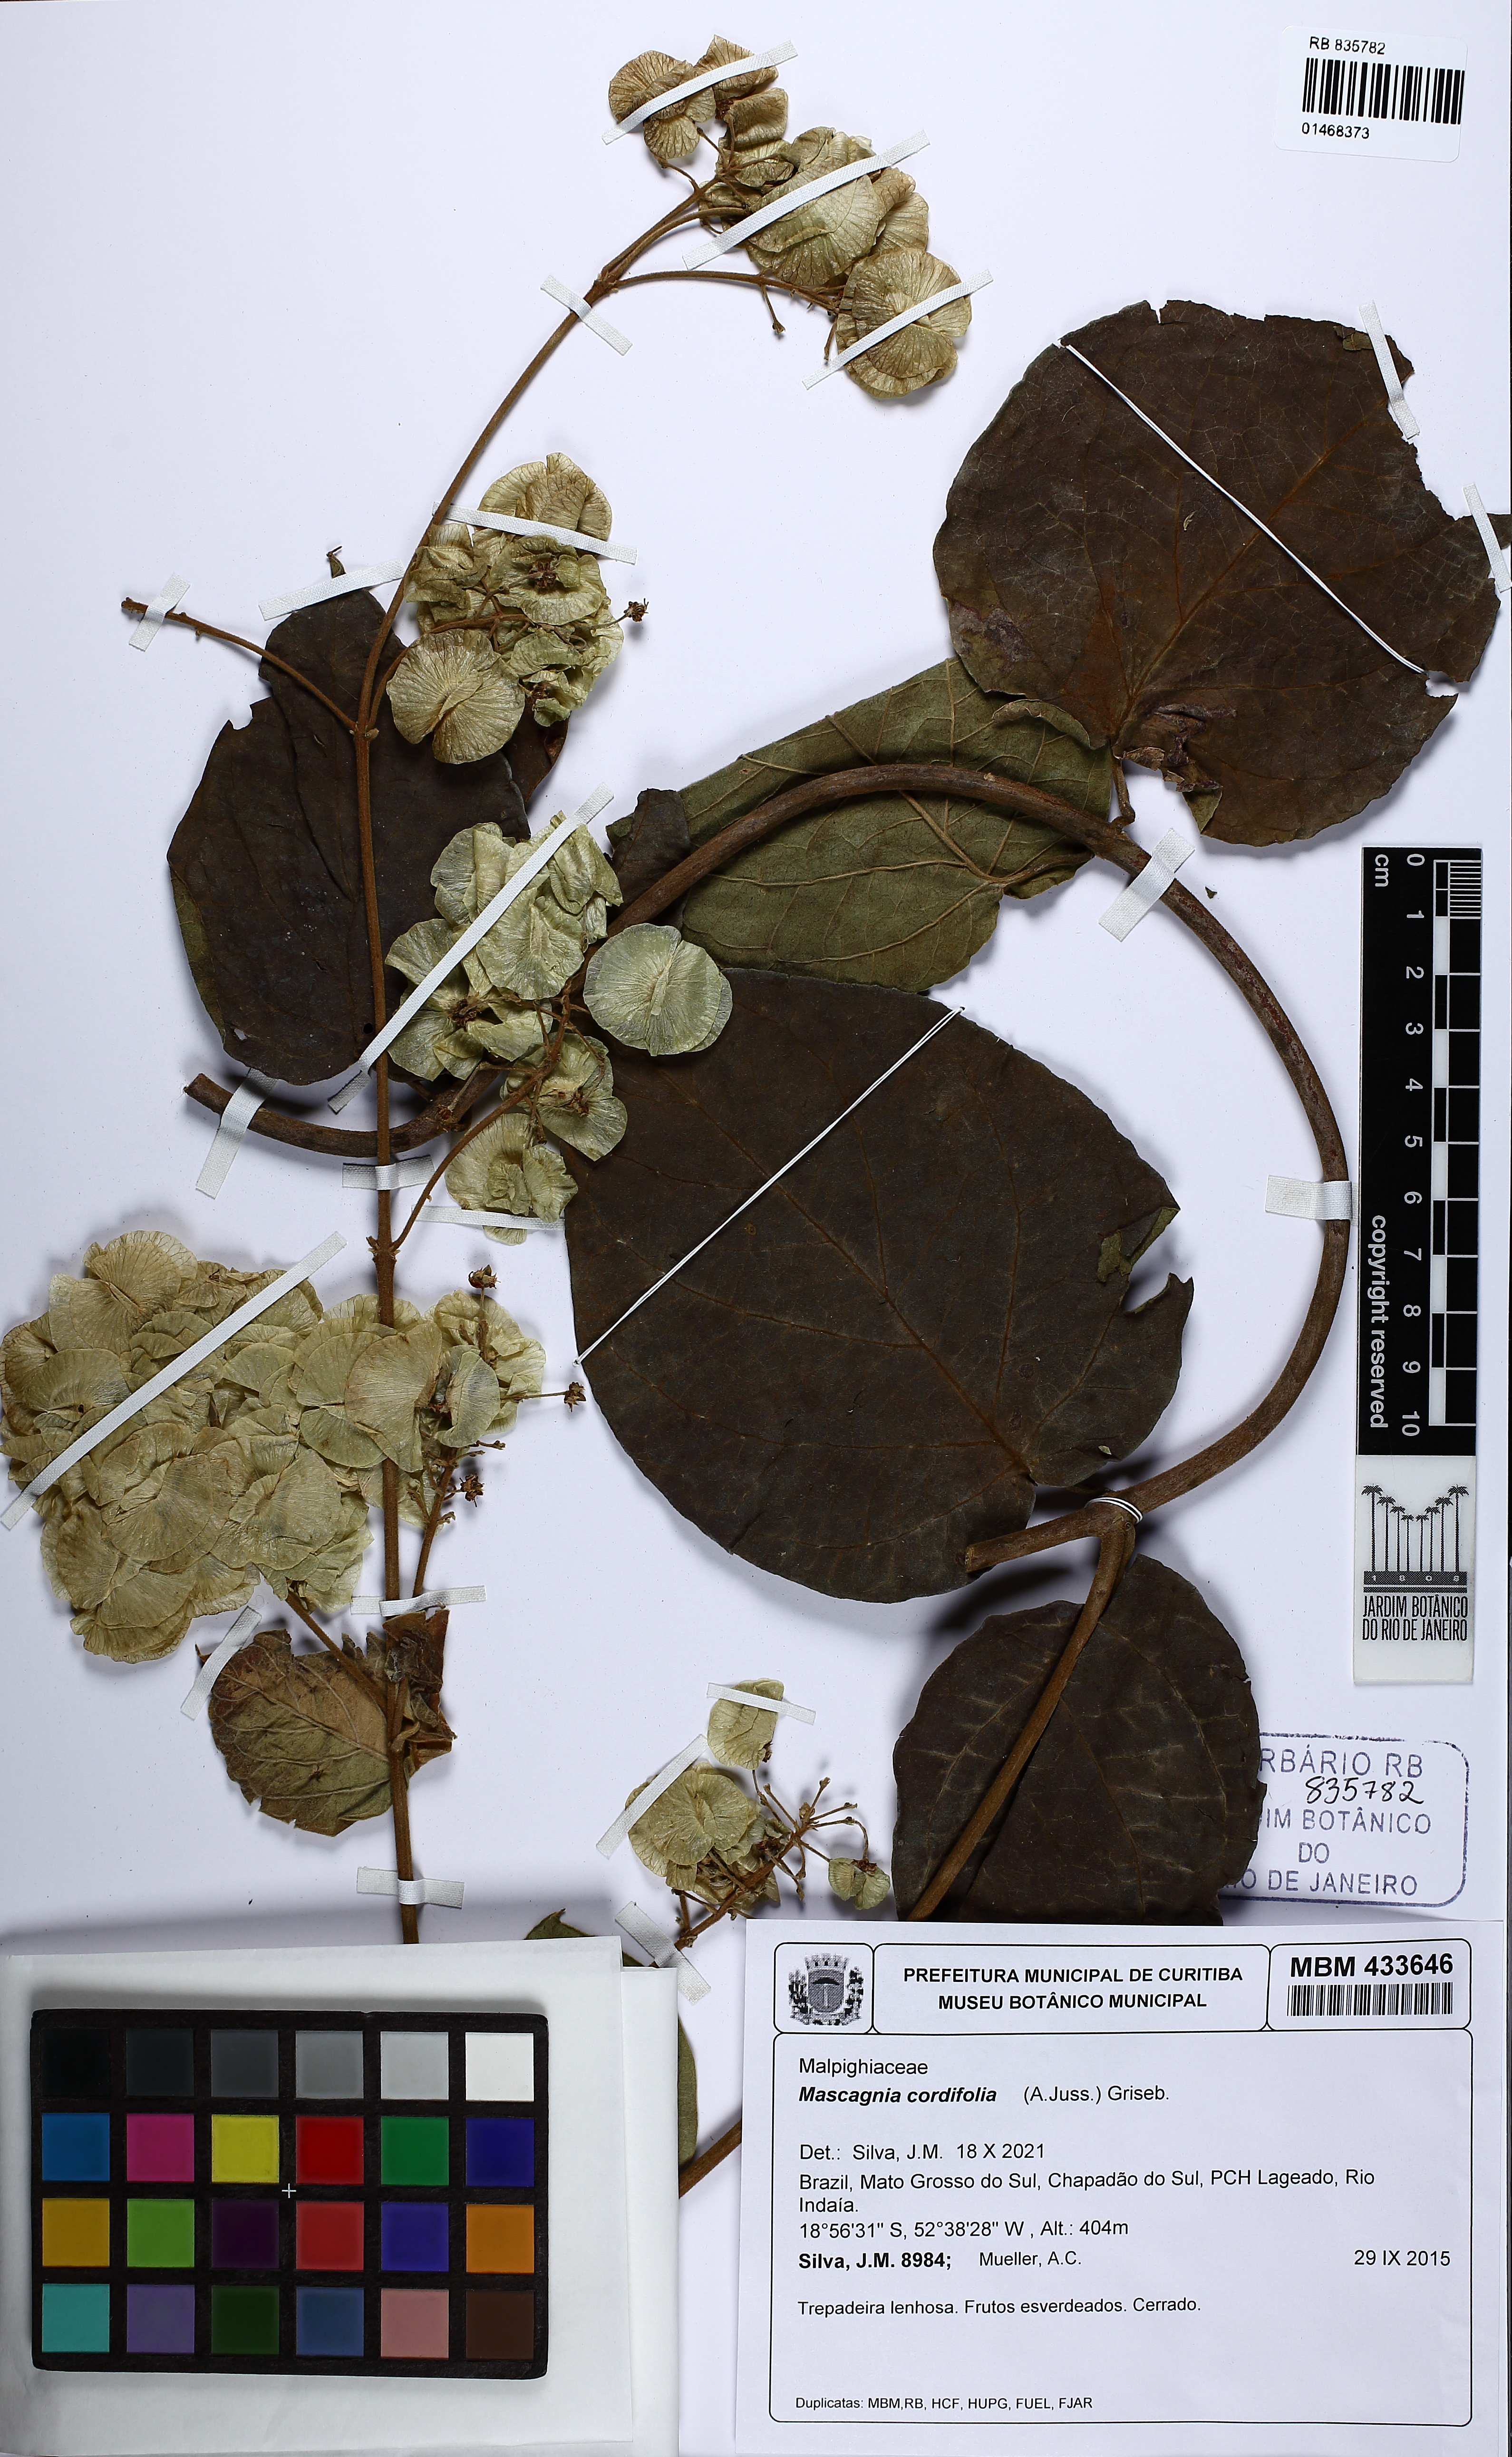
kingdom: Plantae
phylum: Tracheophyta
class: Magnoliopsida
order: Malpighiales
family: Malpighiaceae
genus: Mascagnia
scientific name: Mascagnia cordifolia
